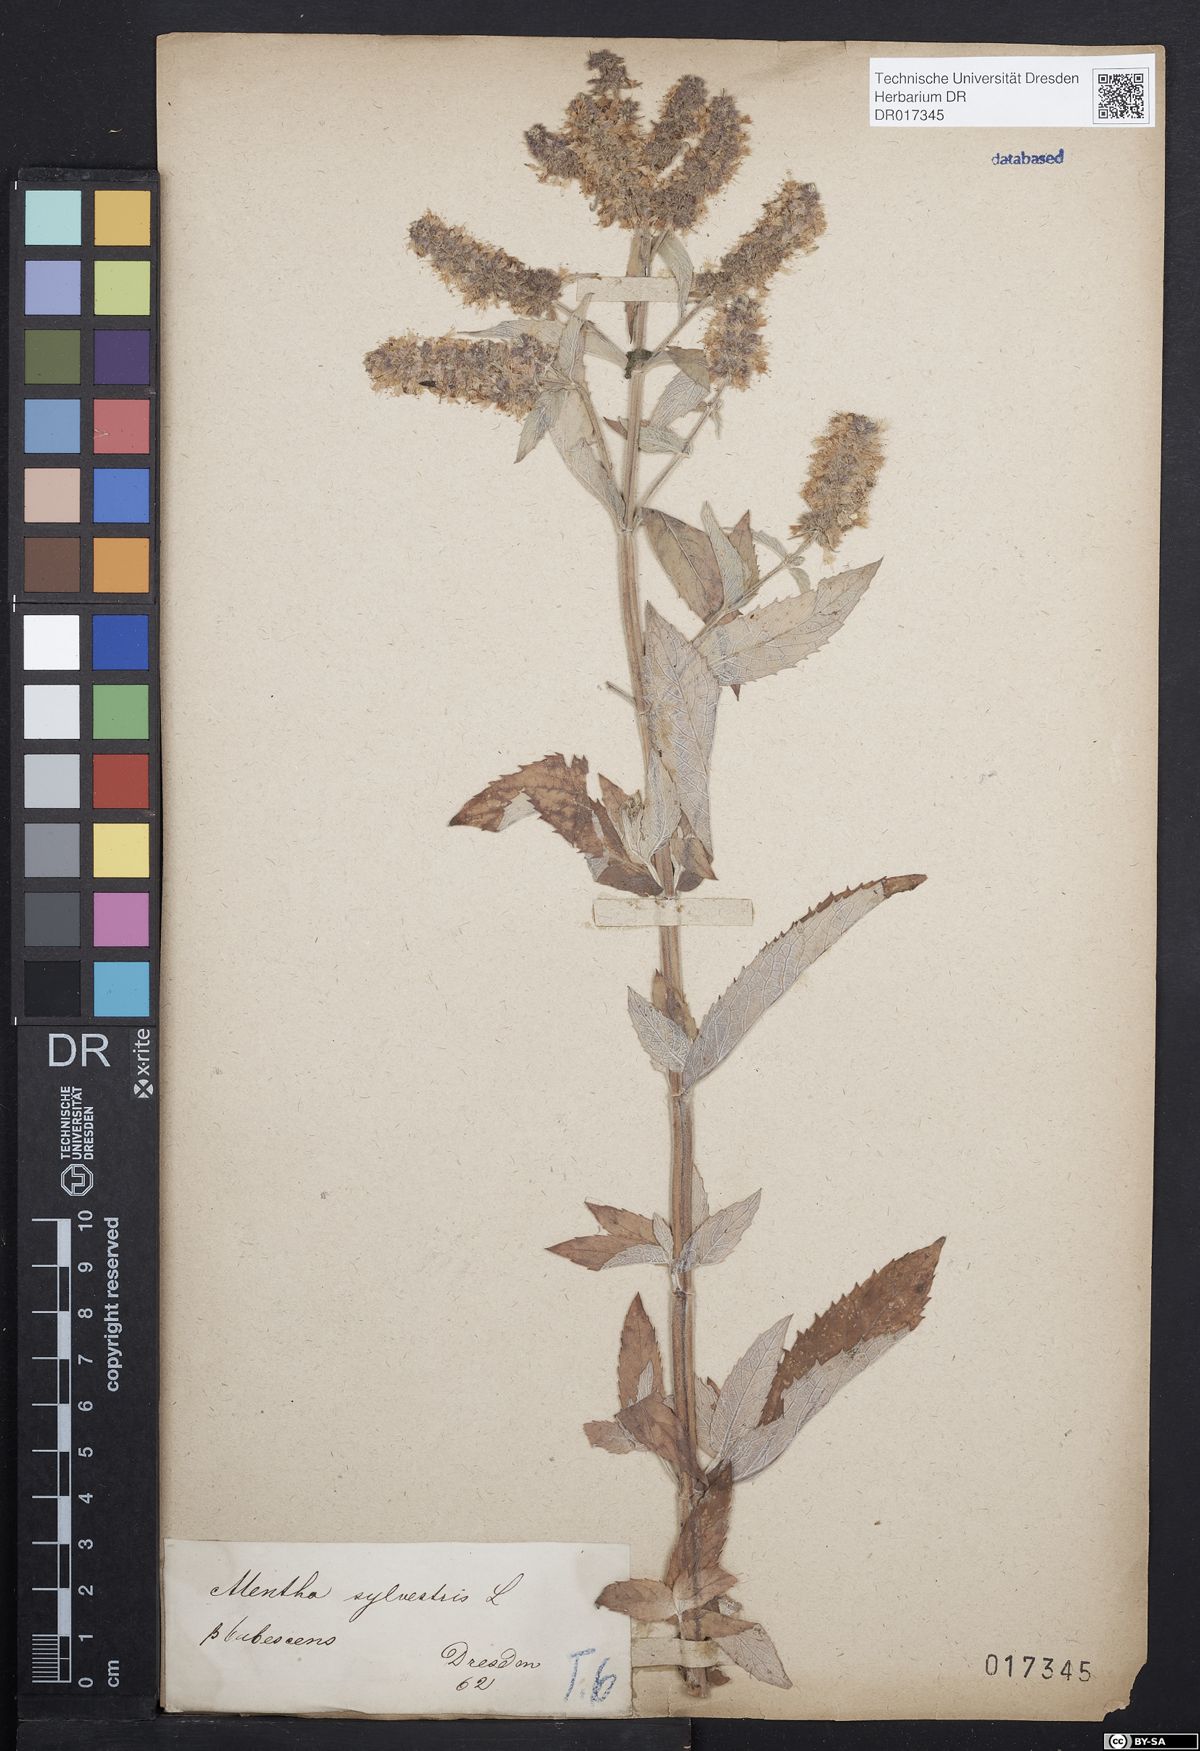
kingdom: Plantae
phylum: Tracheophyta
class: Magnoliopsida
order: Lamiales
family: Lamiaceae
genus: Mentha
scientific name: Mentha longifolia
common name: Horse mint
